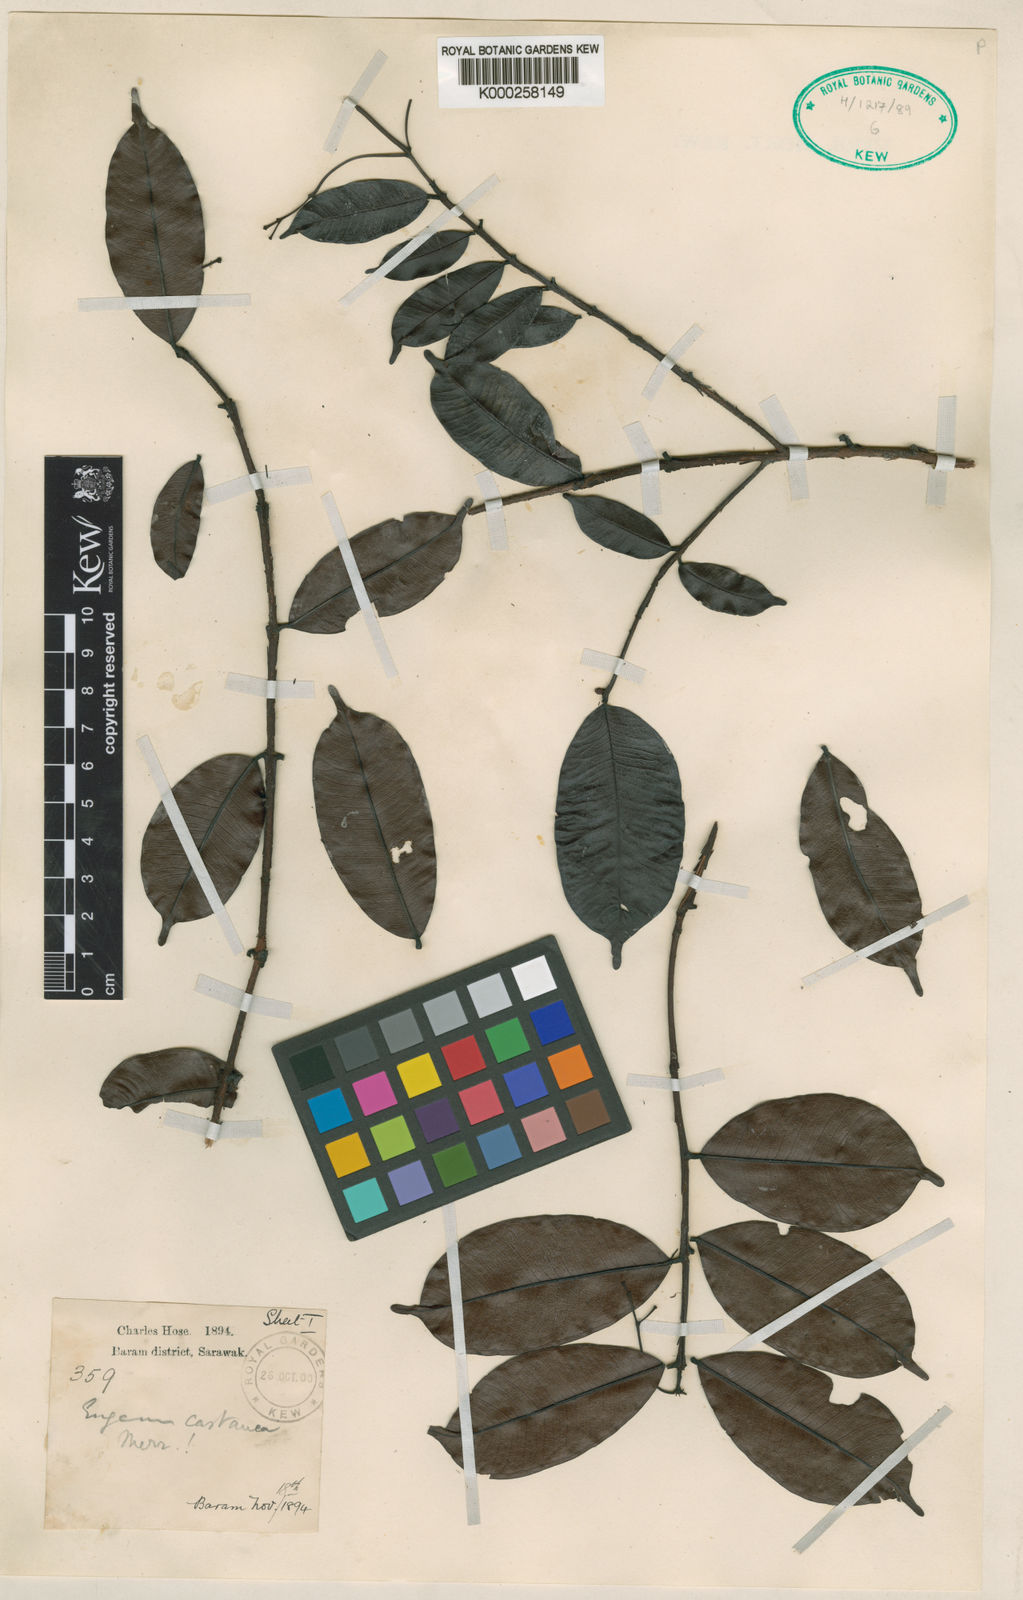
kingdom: Plantae
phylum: Tracheophyta
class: Magnoliopsida
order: Myrtales
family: Myrtaceae
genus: Syzygium
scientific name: Syzygium castaneum
